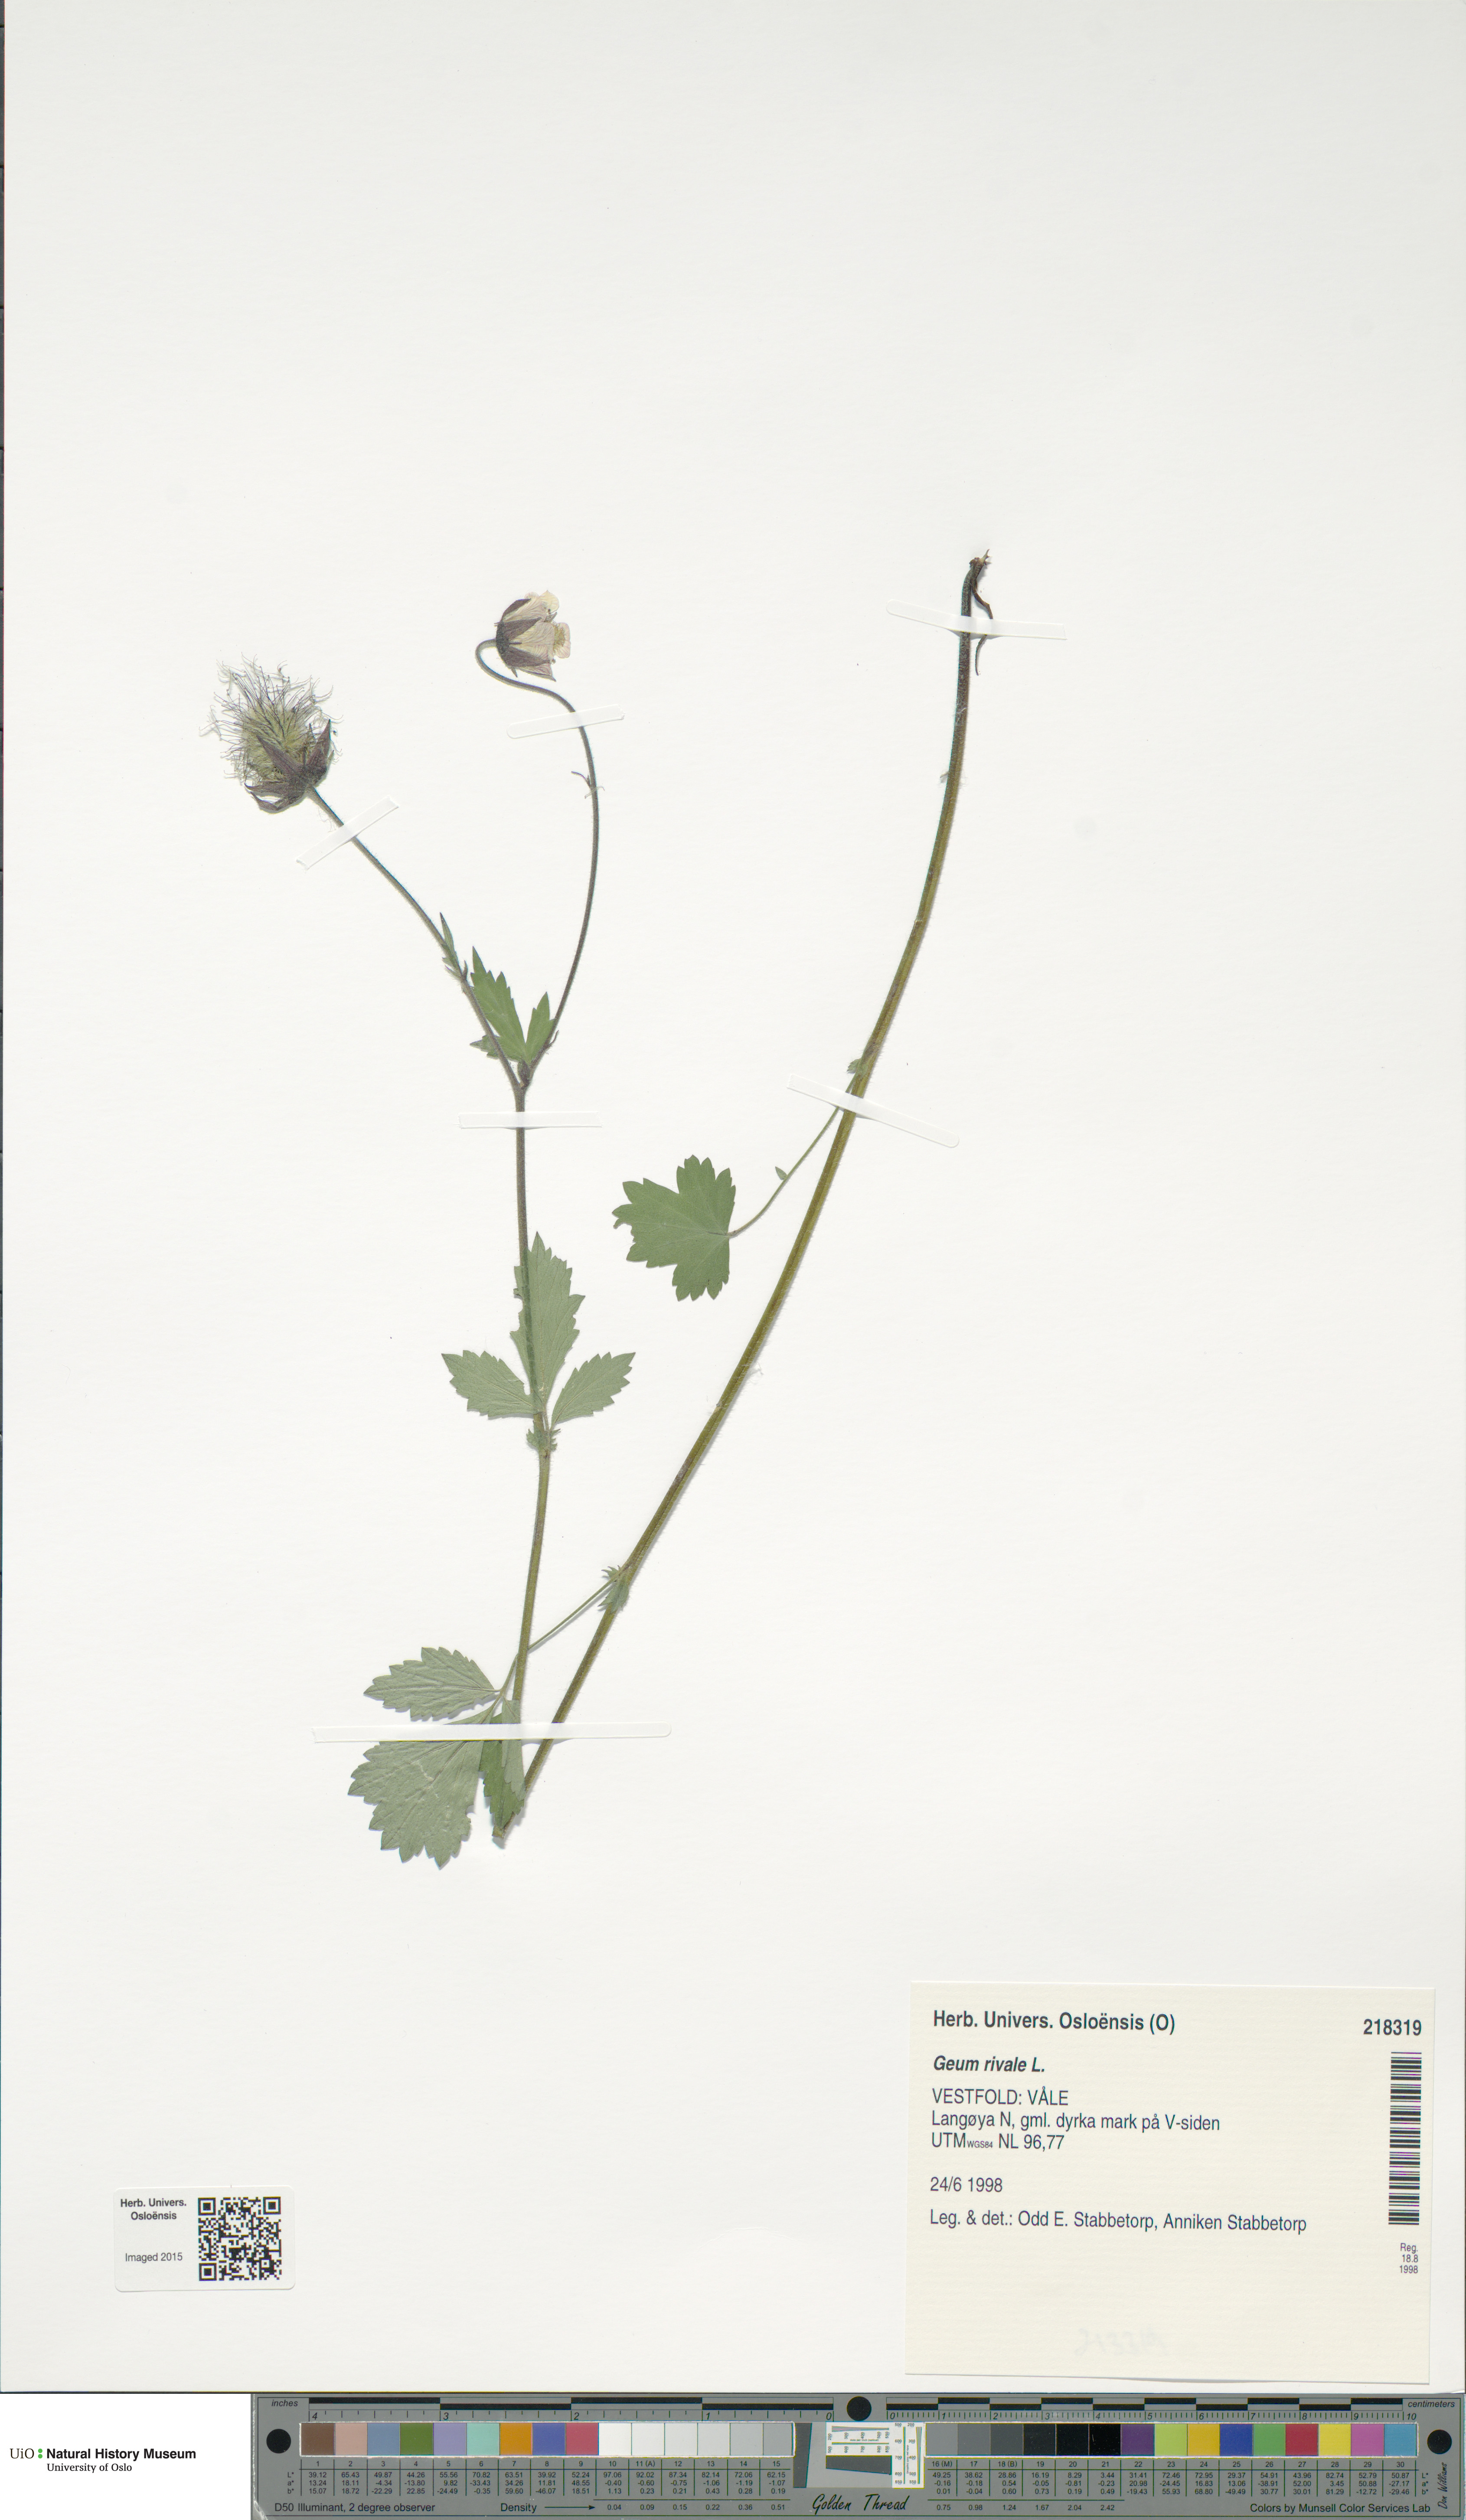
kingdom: Plantae
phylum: Tracheophyta
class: Magnoliopsida
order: Rosales
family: Rosaceae
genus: Geum
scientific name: Geum rivale
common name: Water avens
